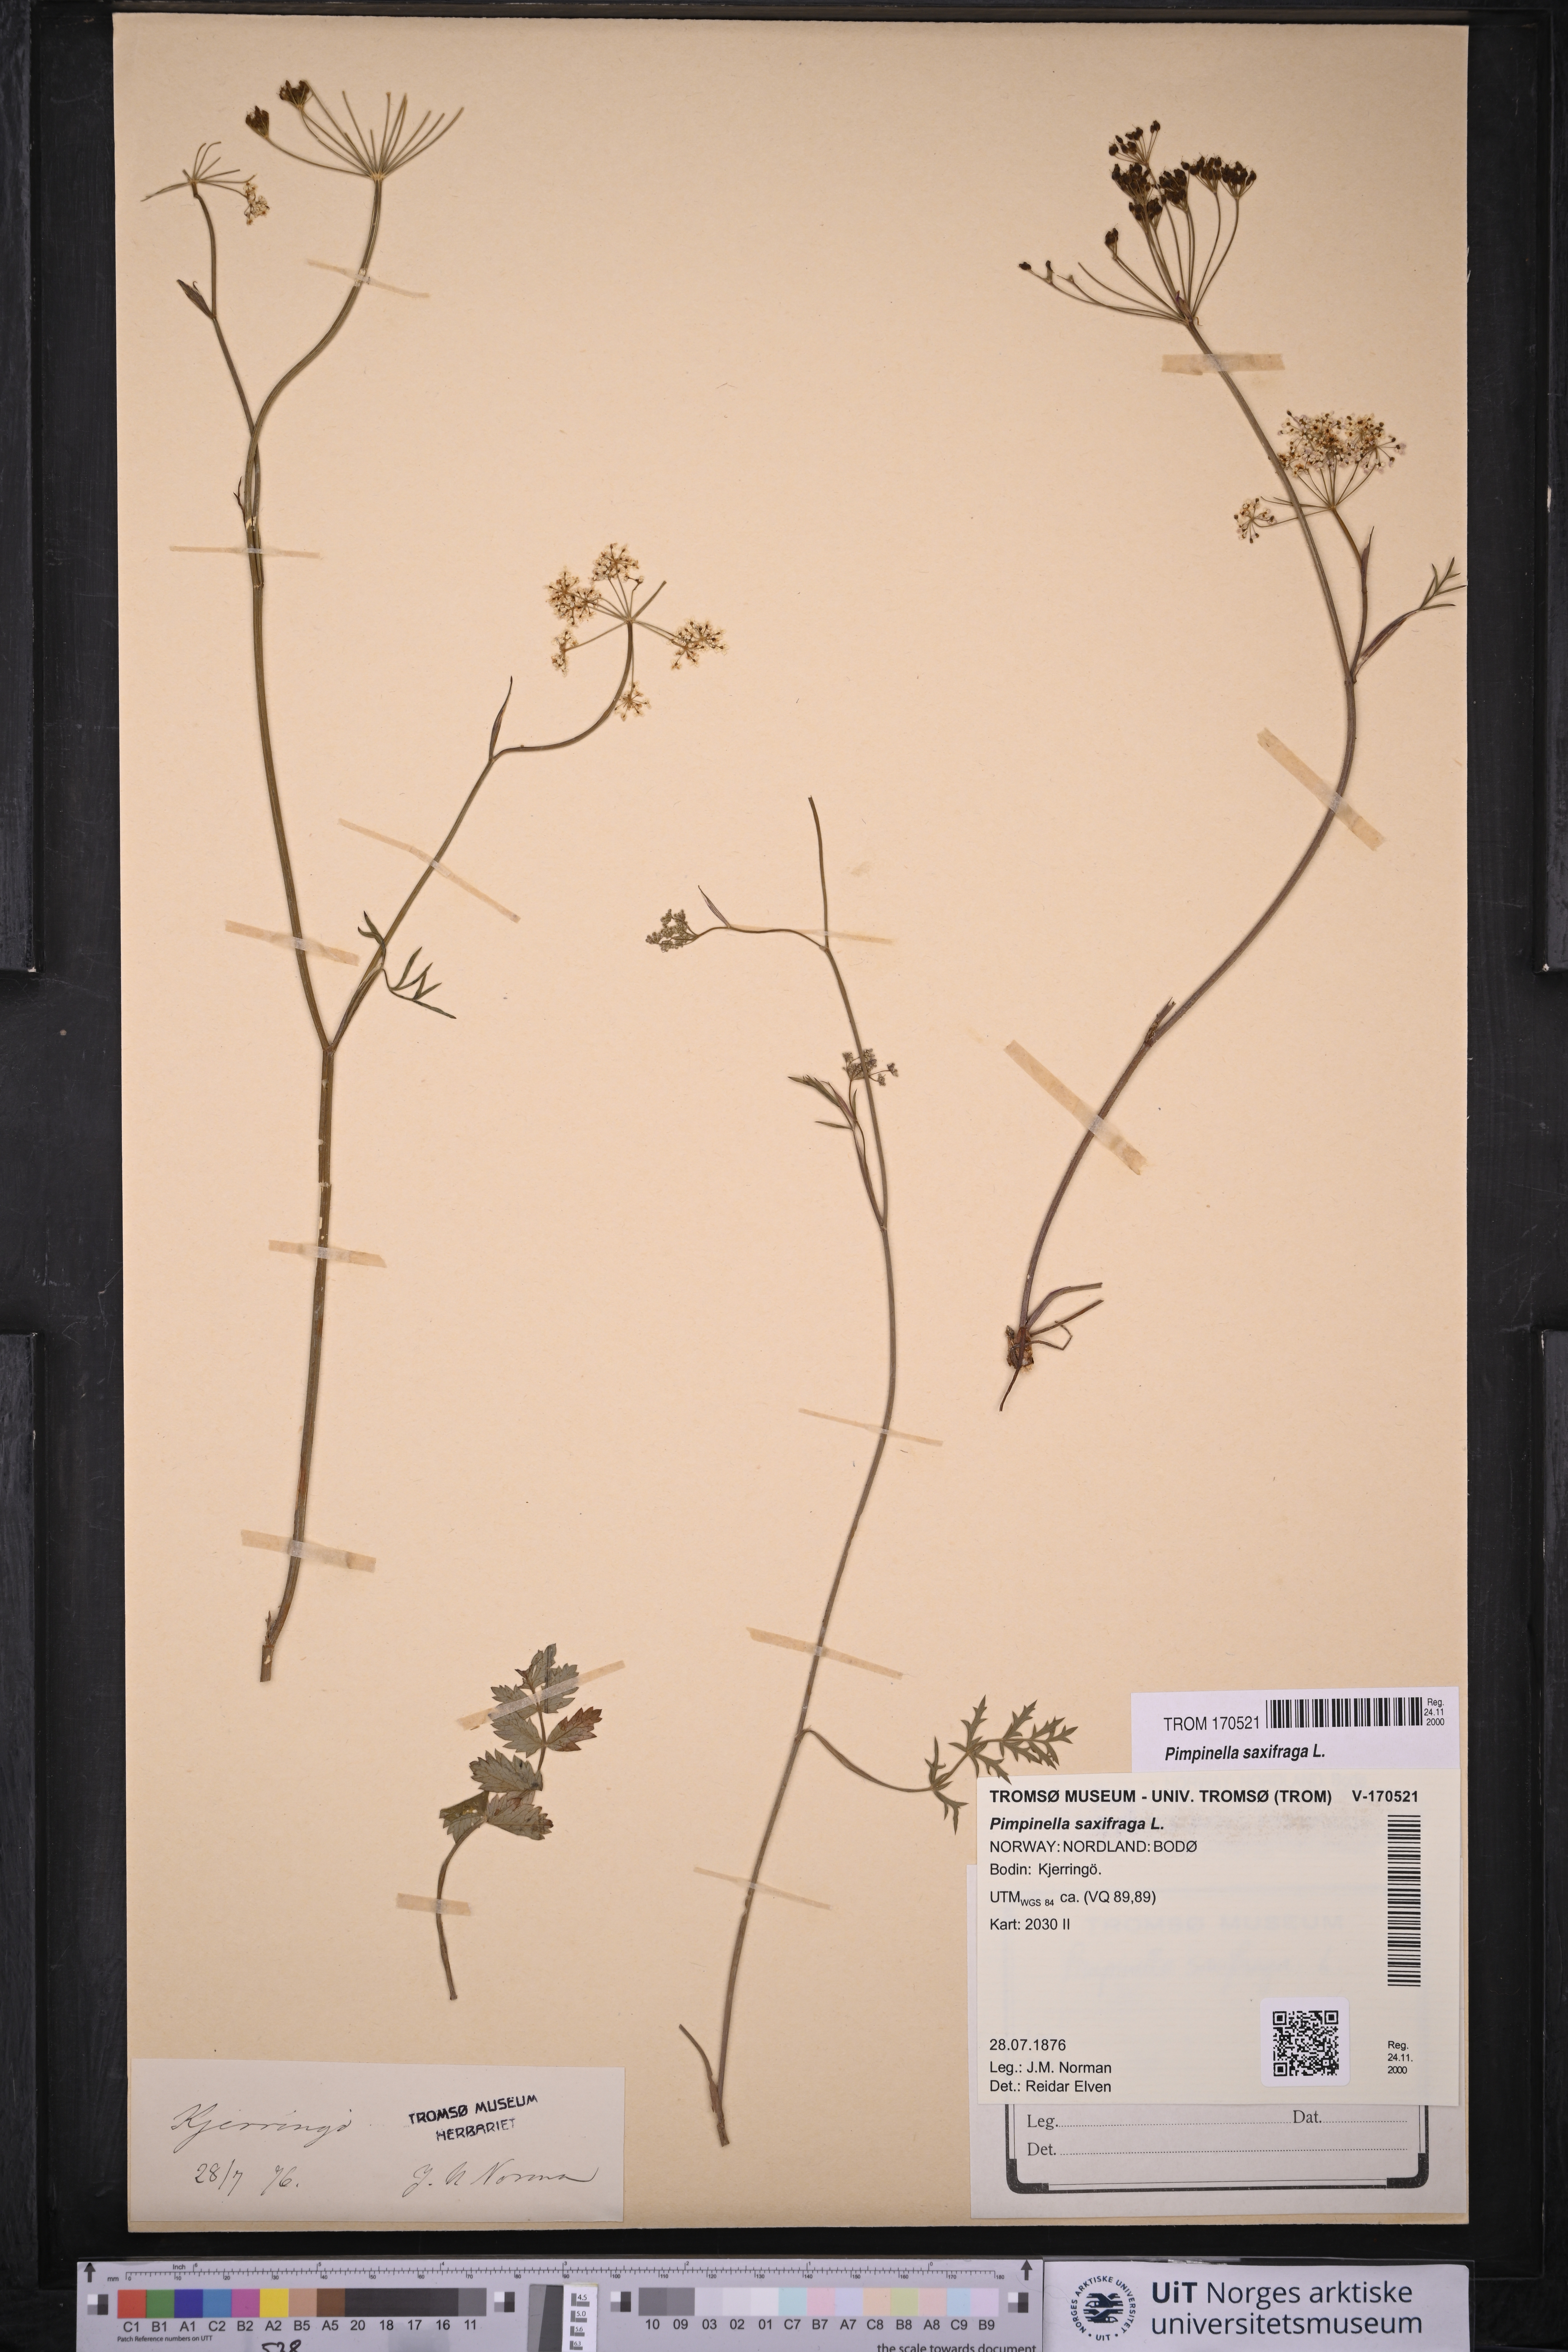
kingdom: Plantae
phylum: Tracheophyta
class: Magnoliopsida
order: Apiales
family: Apiaceae
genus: Pimpinella
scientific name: Pimpinella saxifraga
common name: Burnet-saxifrage
